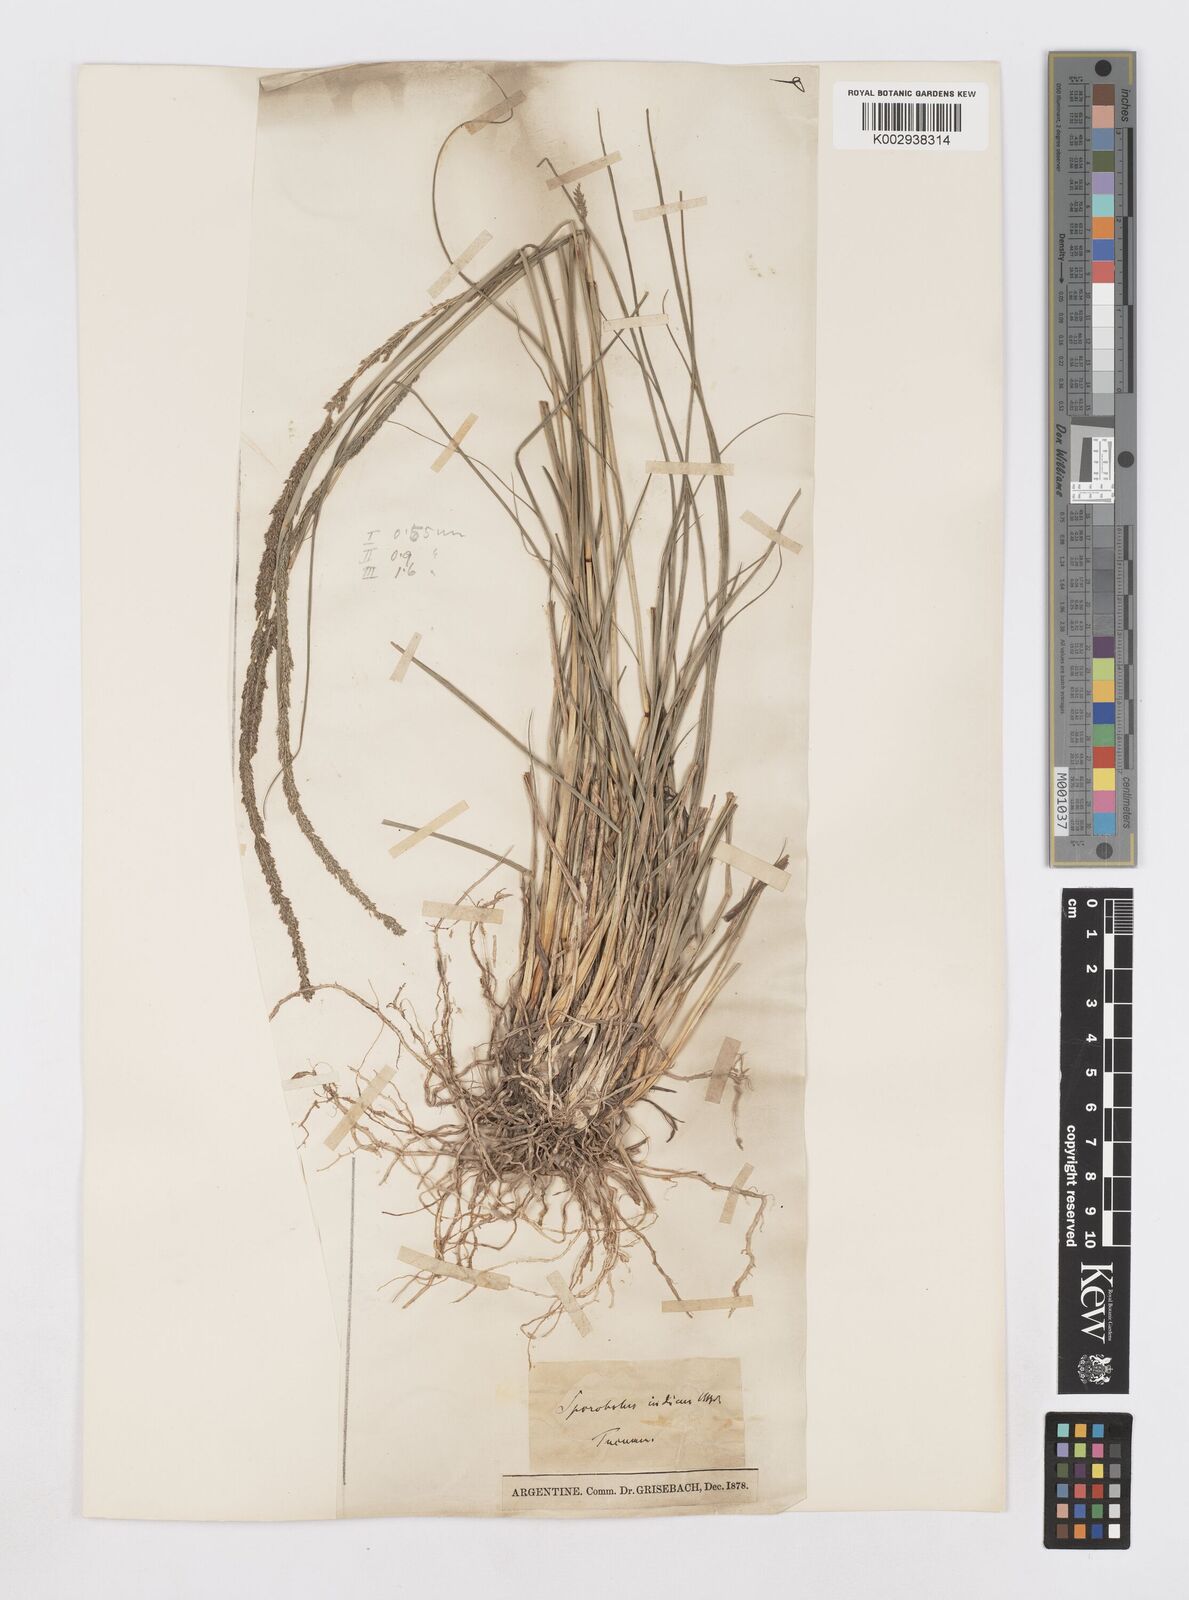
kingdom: Plantae
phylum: Tracheophyta
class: Liliopsida
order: Poales
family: Poaceae
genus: Sporobolus
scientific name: Sporobolus indicus
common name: Smut grass
